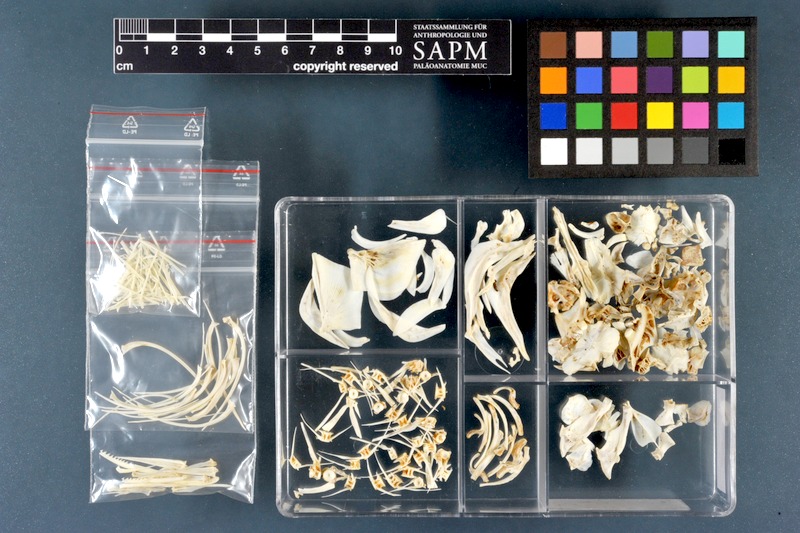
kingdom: Animalia
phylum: Chordata
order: Cypriniformes
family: Cyprinidae
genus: Cyprinus
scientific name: Cyprinus carpio
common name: Common carp
